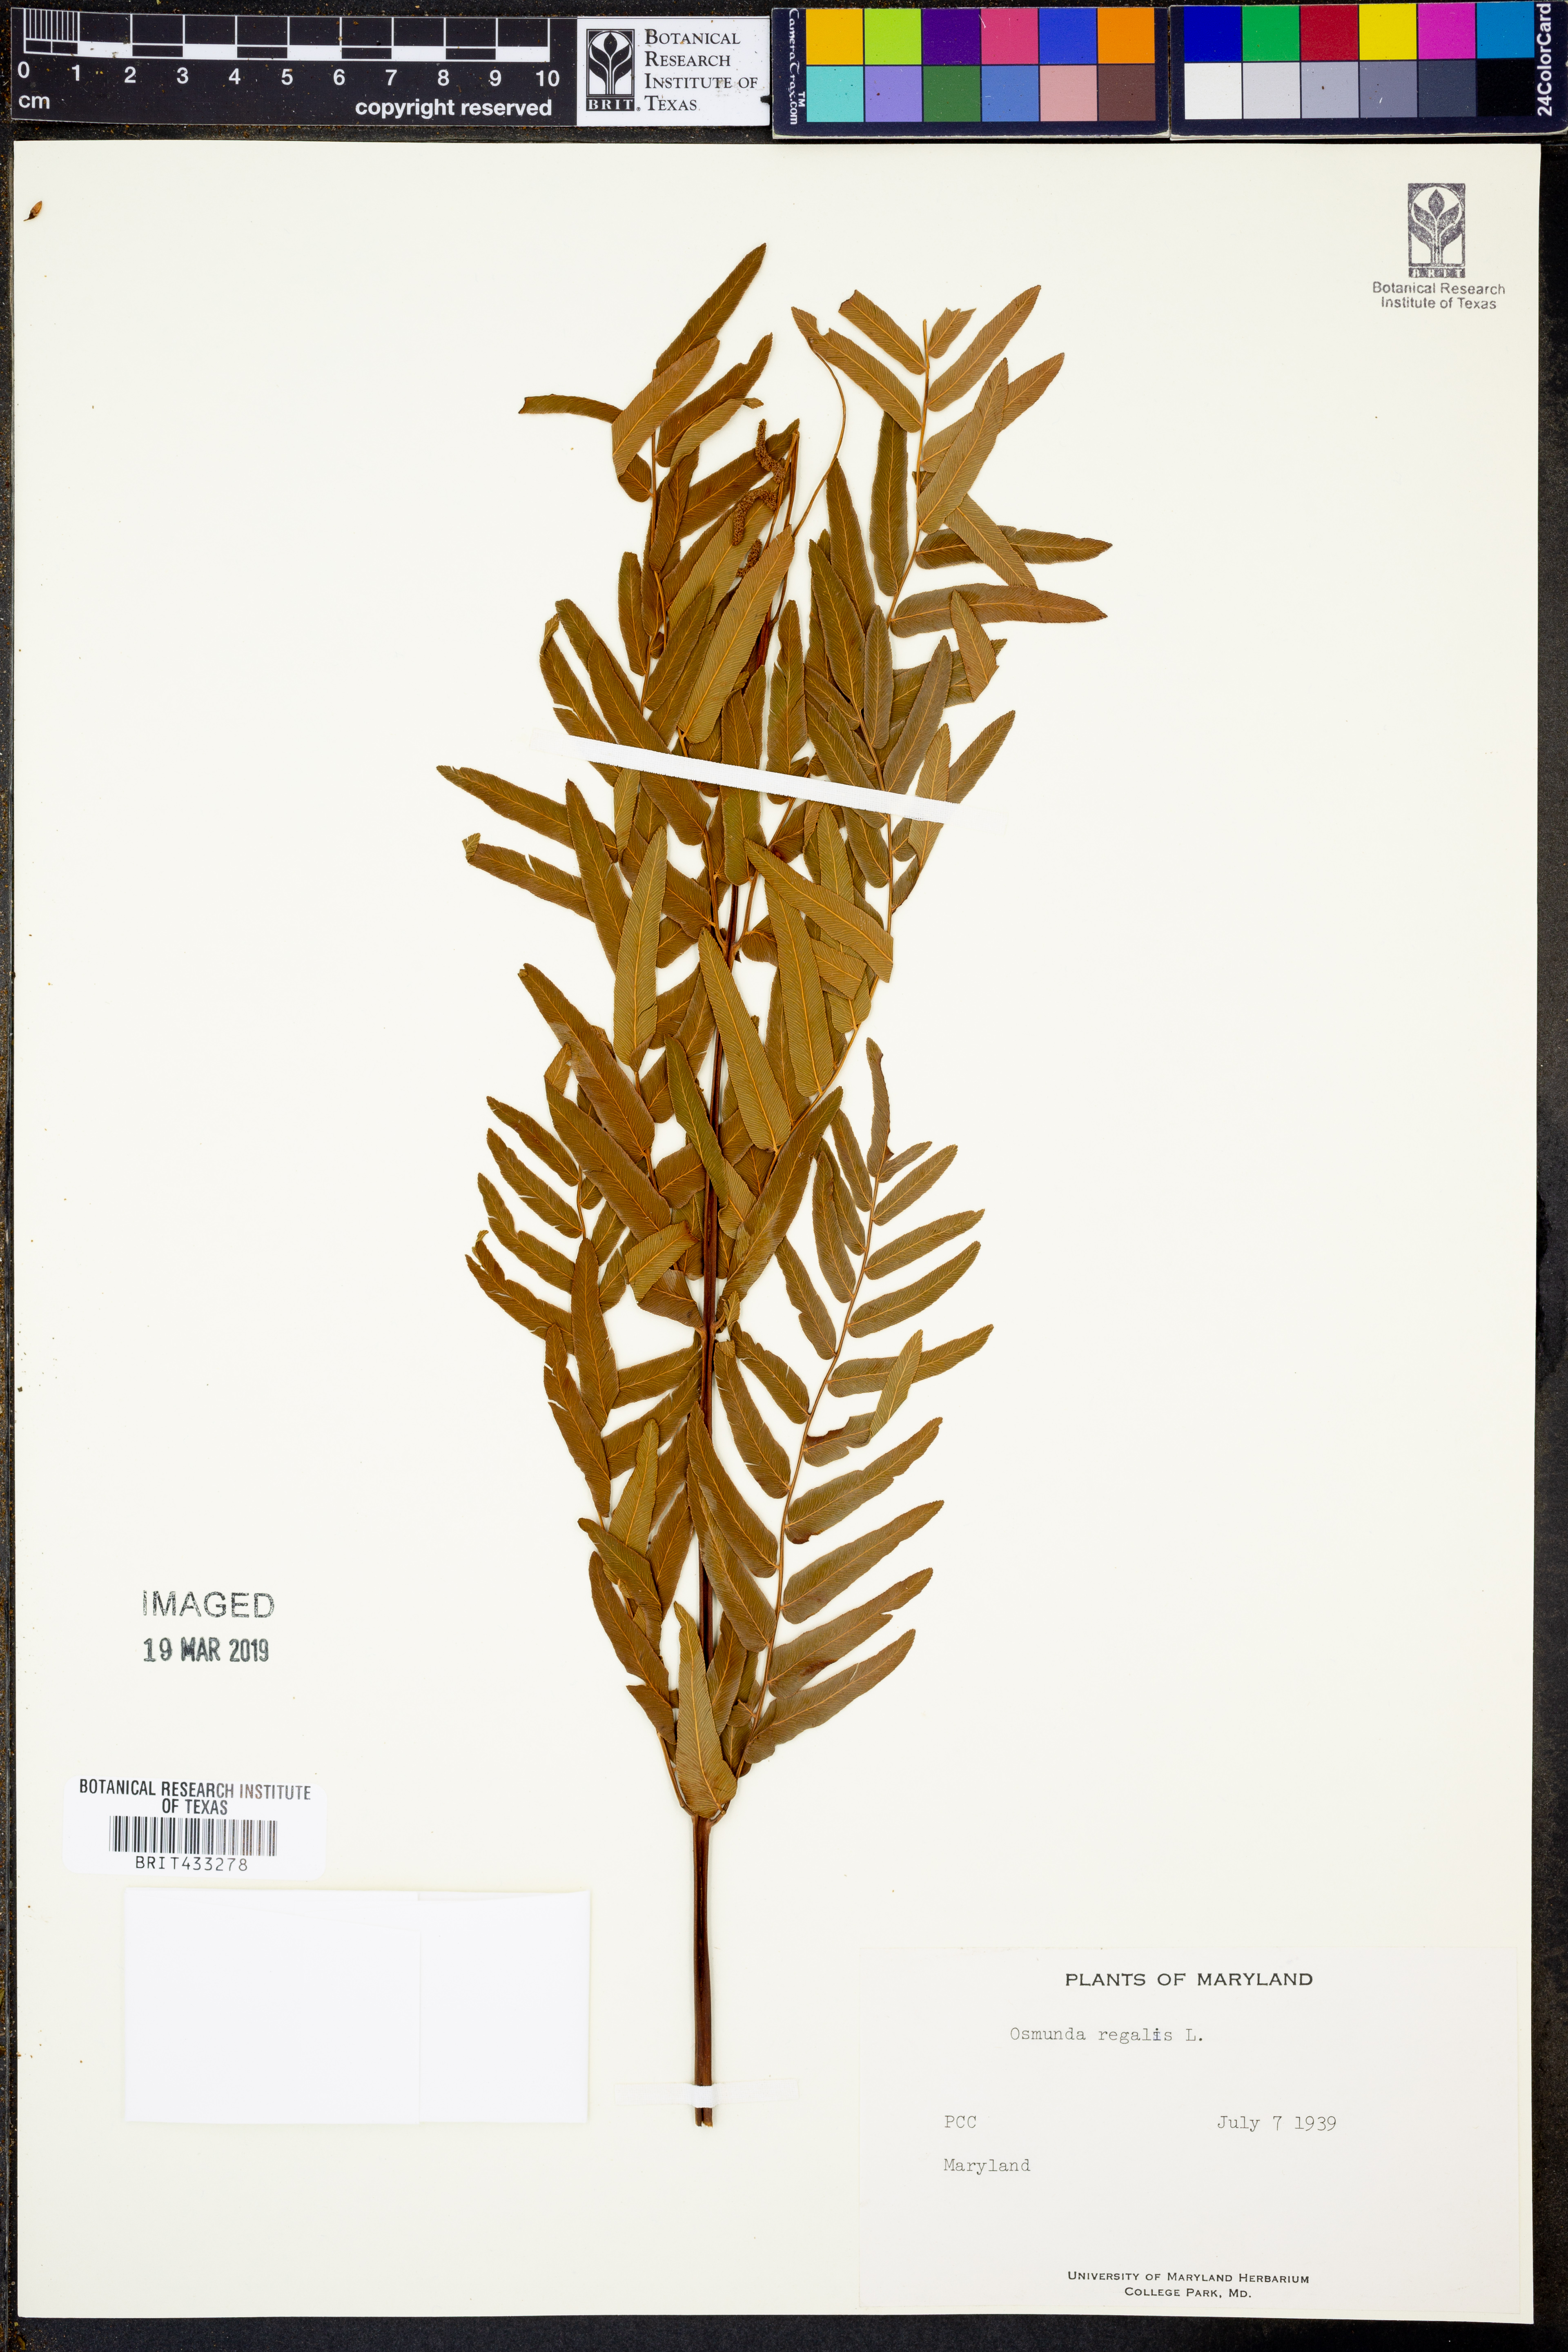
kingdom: Plantae
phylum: Tracheophyta
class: Polypodiopsida
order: Osmundales
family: Osmundaceae
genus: Osmunda
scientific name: Osmunda regalis
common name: Royal fern
